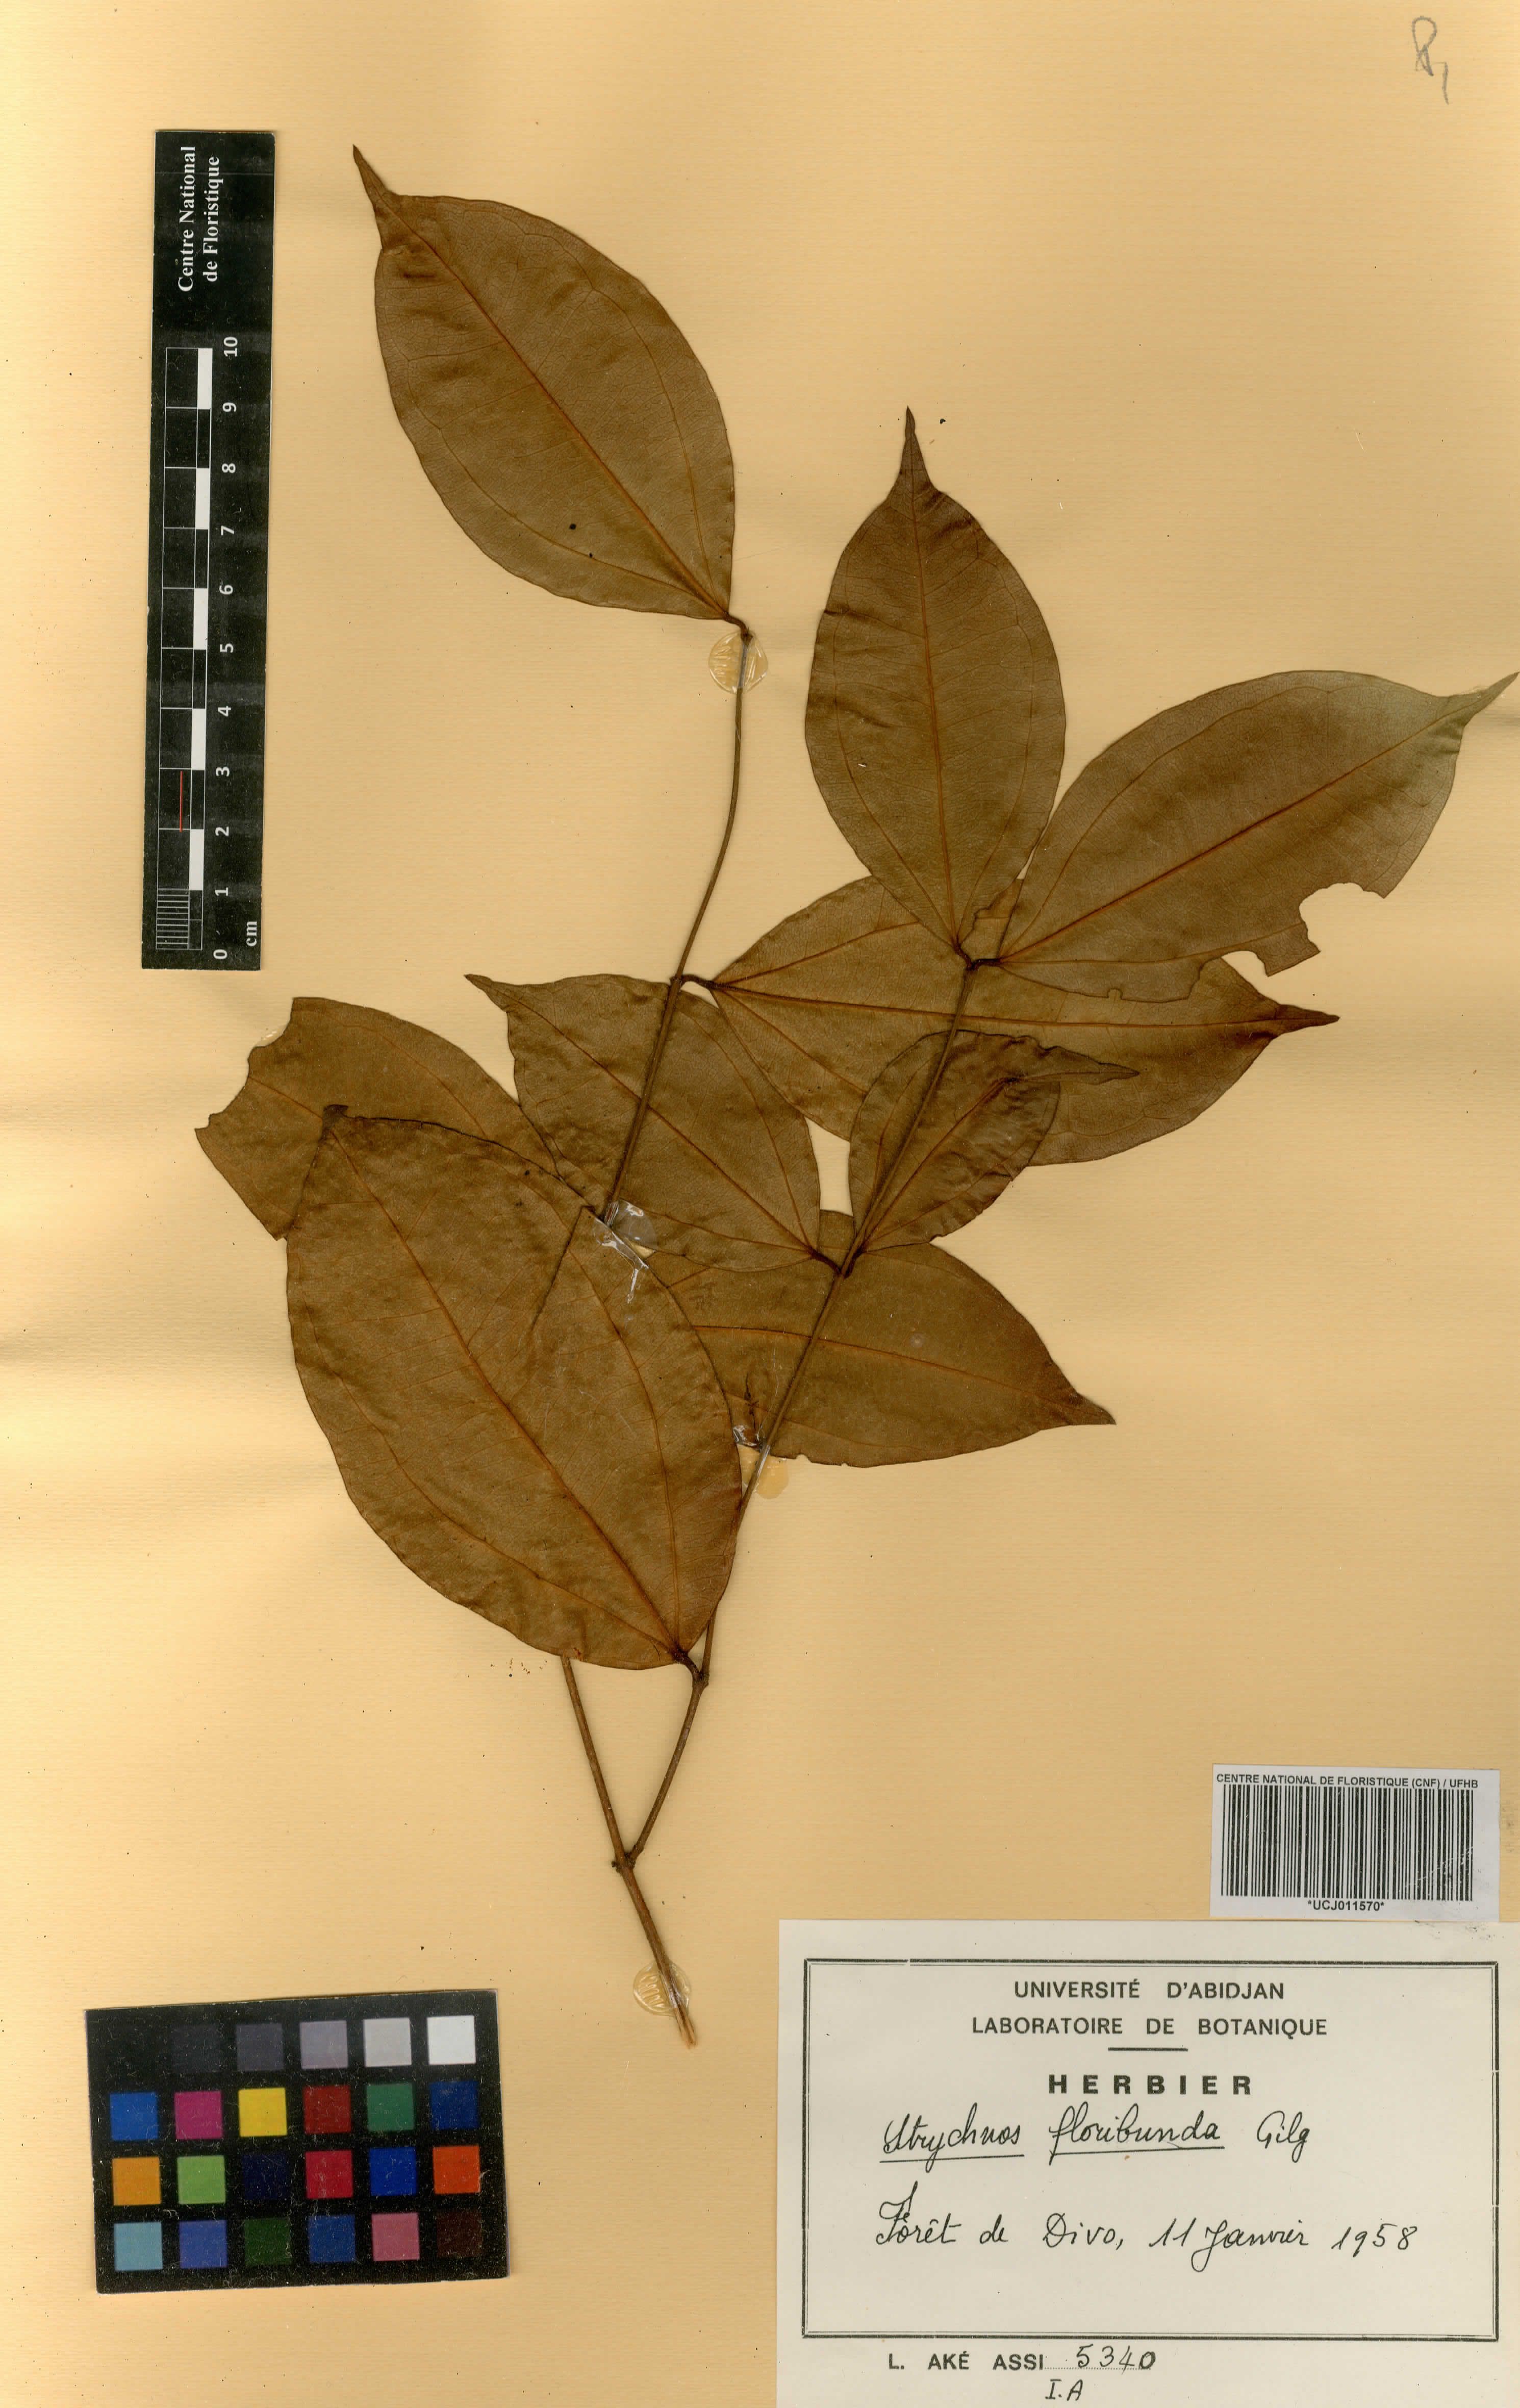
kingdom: Plantae
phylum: Tracheophyta
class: Magnoliopsida
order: Gentianales
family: Loganiaceae
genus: Strychnos
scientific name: Strychnos dinklagei
